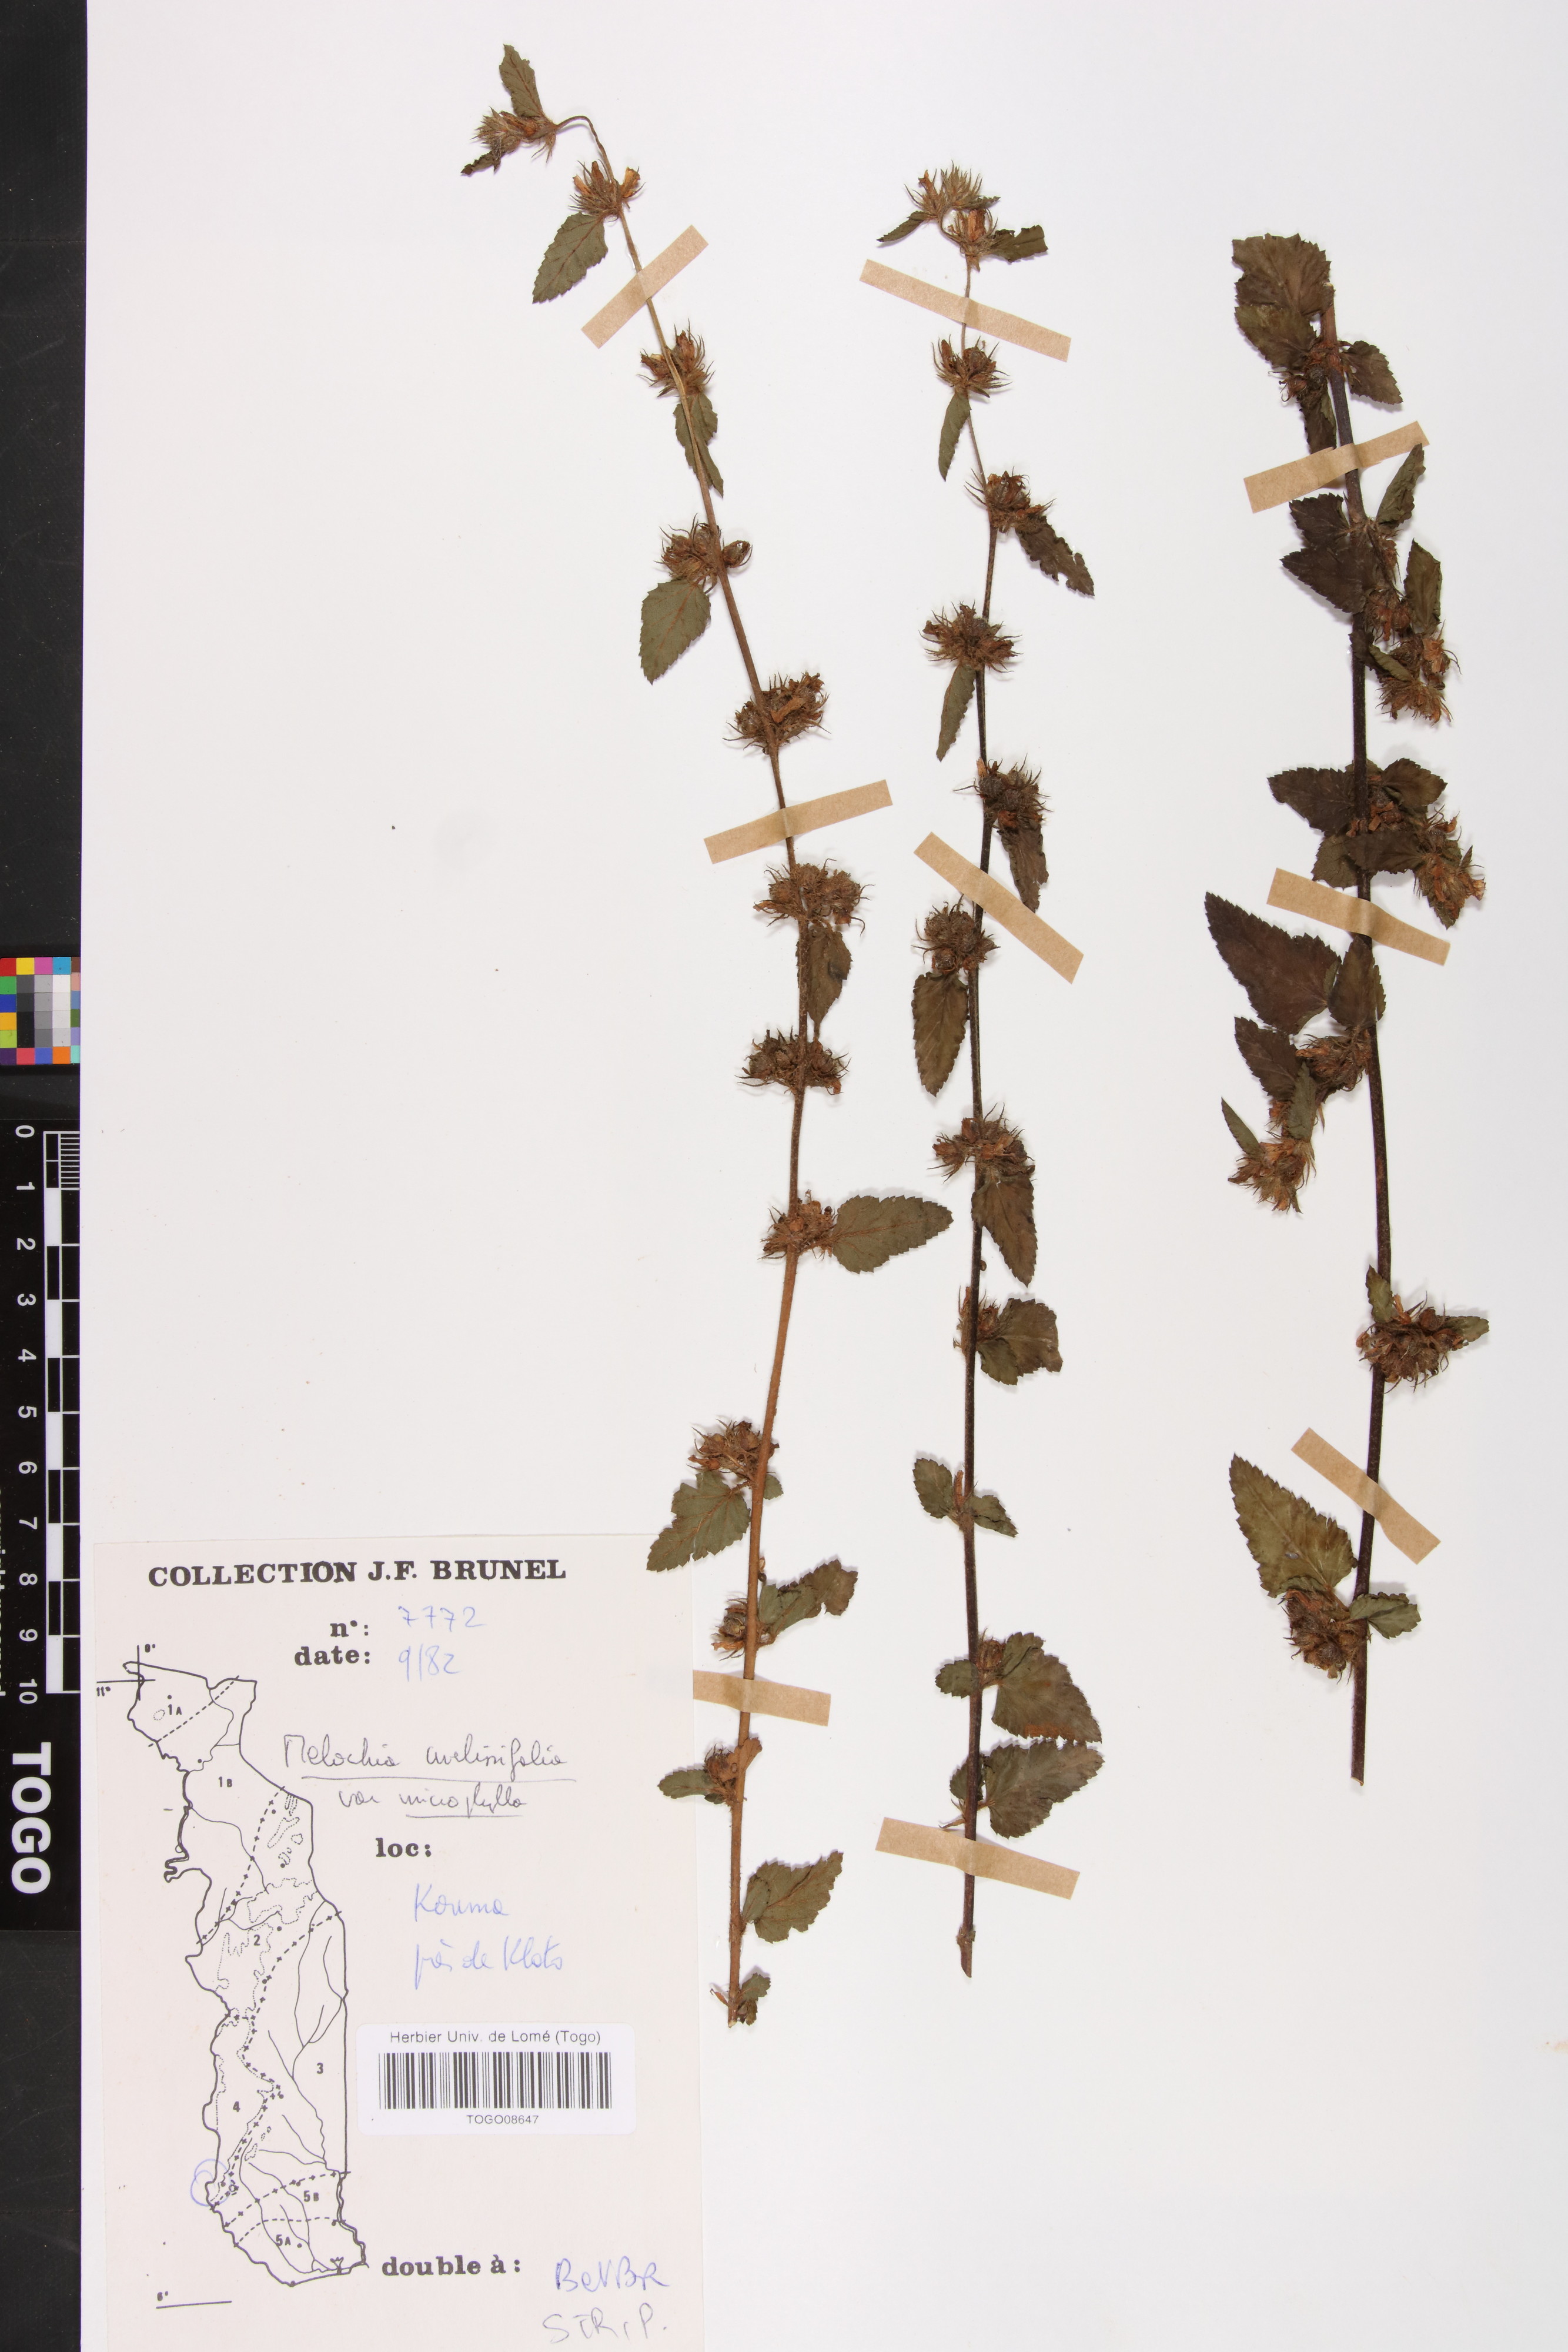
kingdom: Plantae
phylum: Tracheophyta
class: Magnoliopsida
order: Malvales
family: Malvaceae
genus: Melochia
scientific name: Melochia melissifolia
